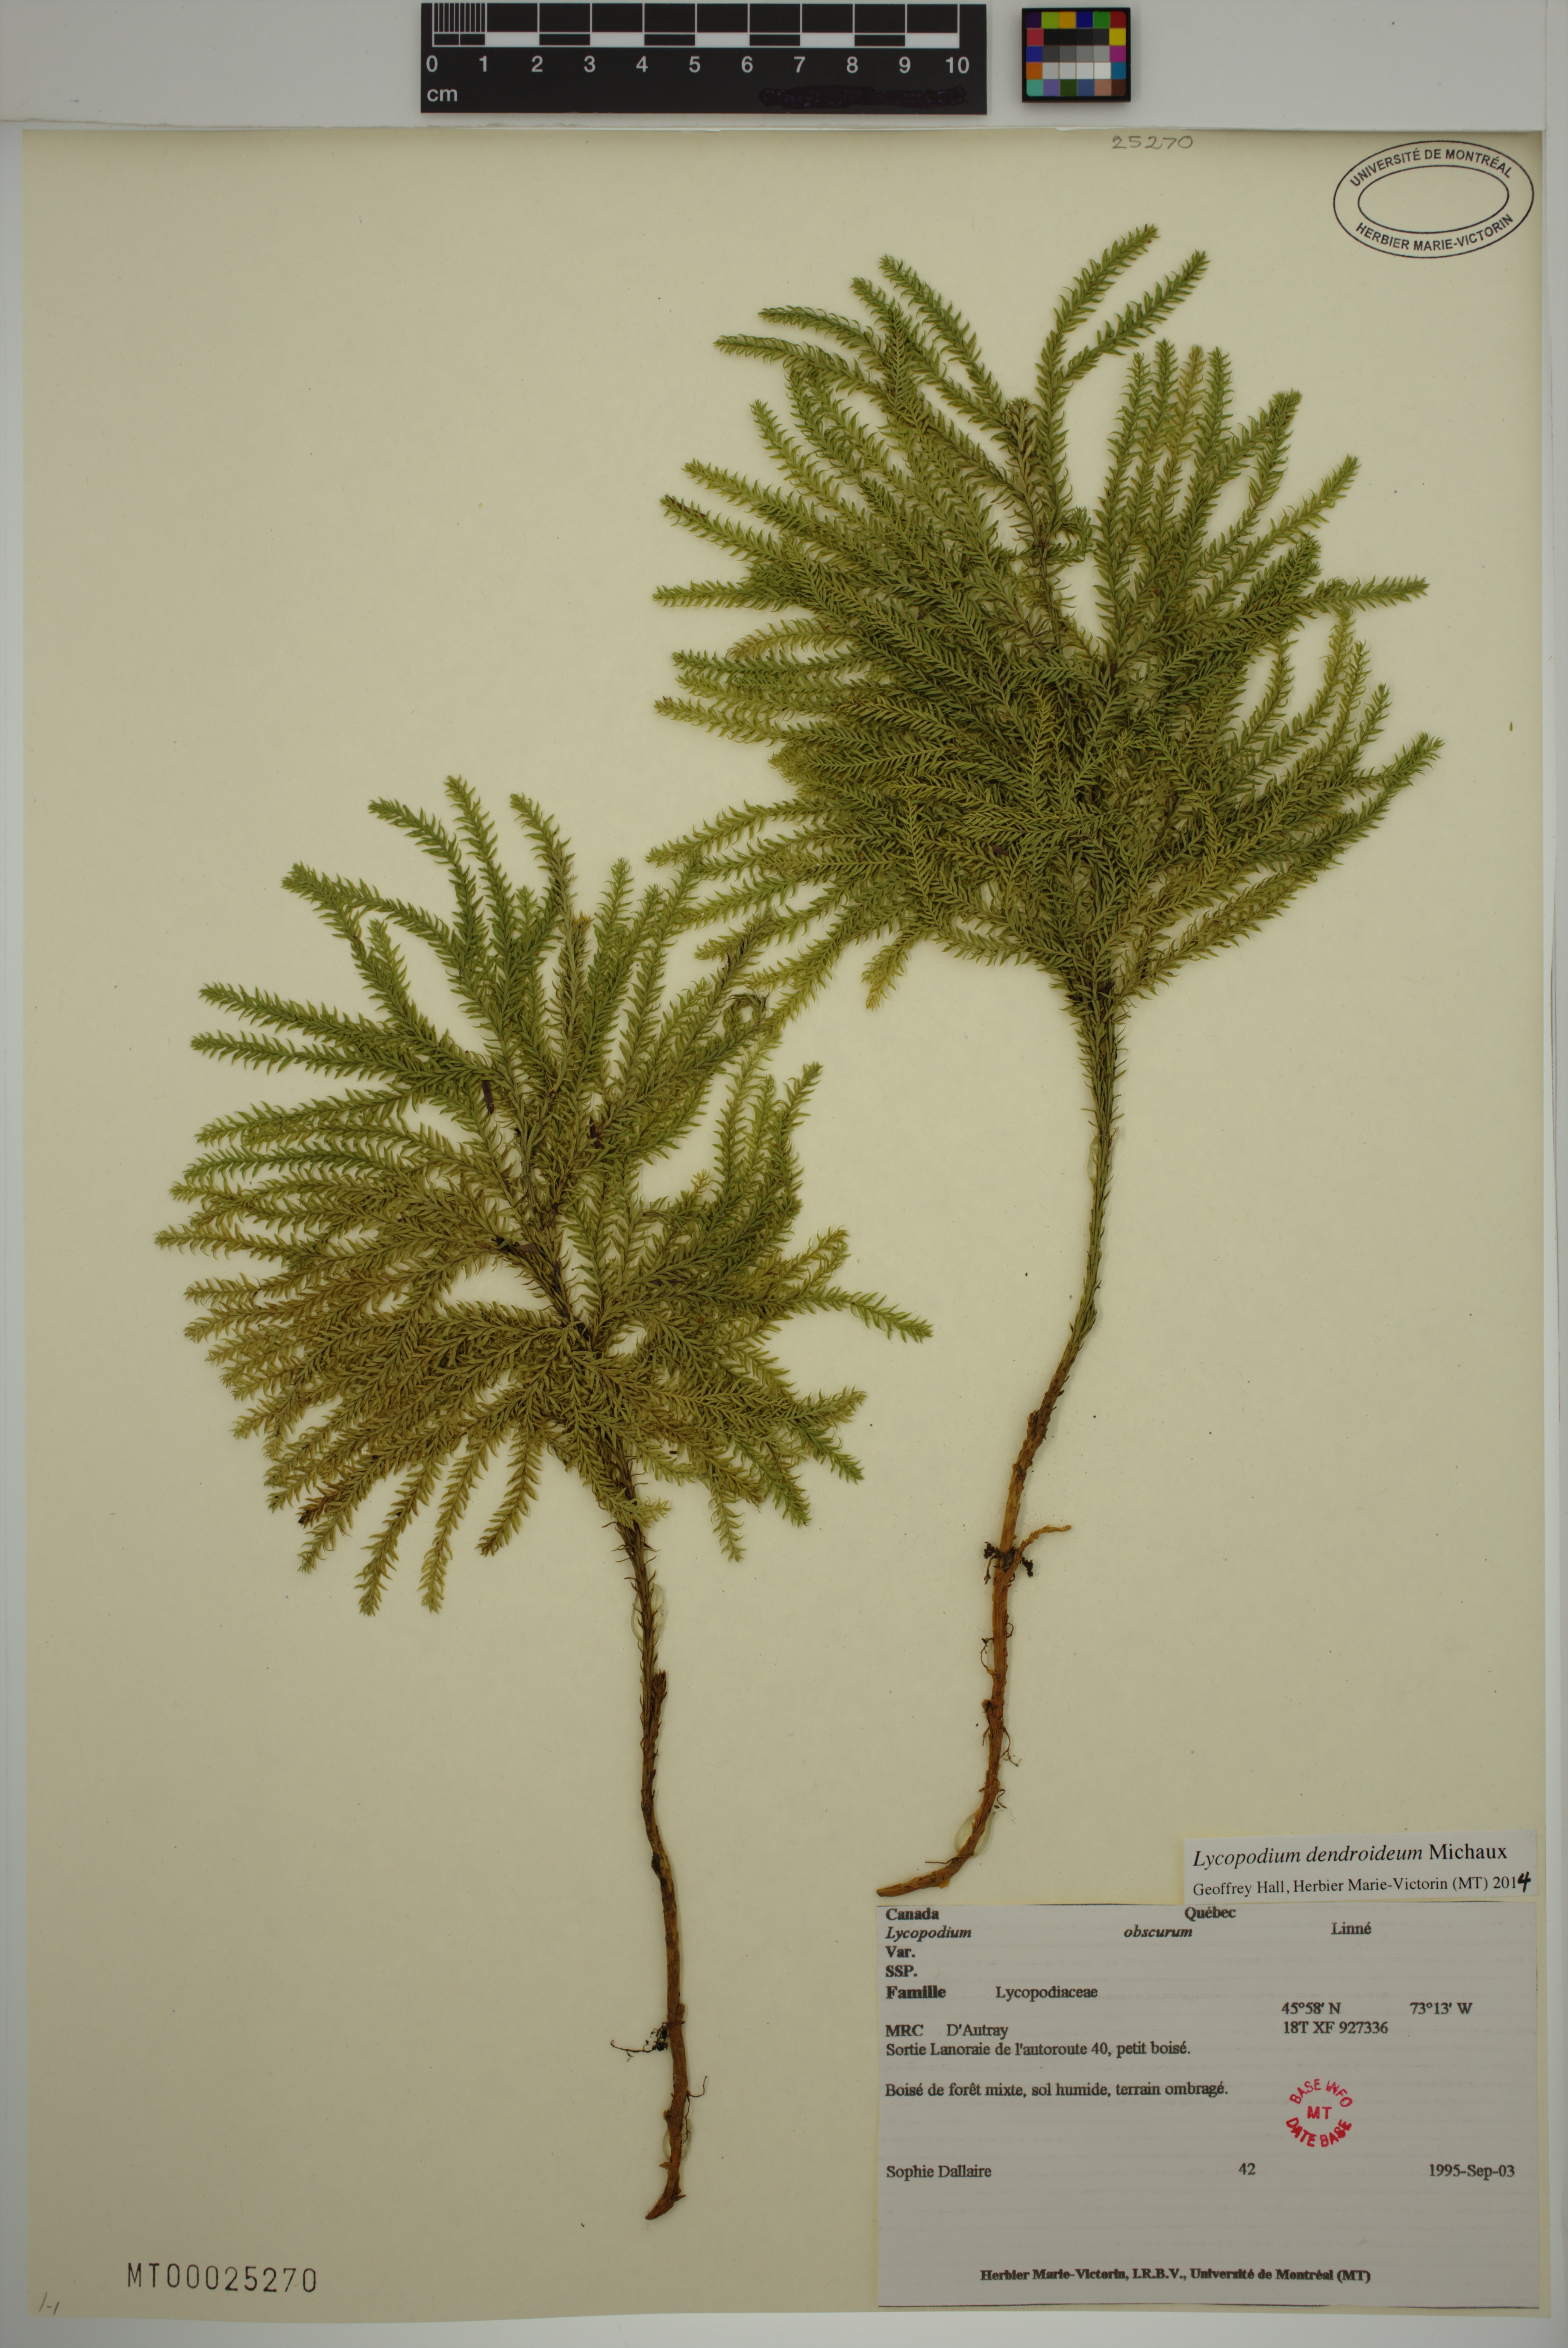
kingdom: Plantae
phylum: Tracheophyta
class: Lycopodiopsida
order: Lycopodiales
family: Lycopodiaceae
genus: Dendrolycopodium
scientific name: Dendrolycopodium dendroideum
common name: Northern tree-clubmoss
